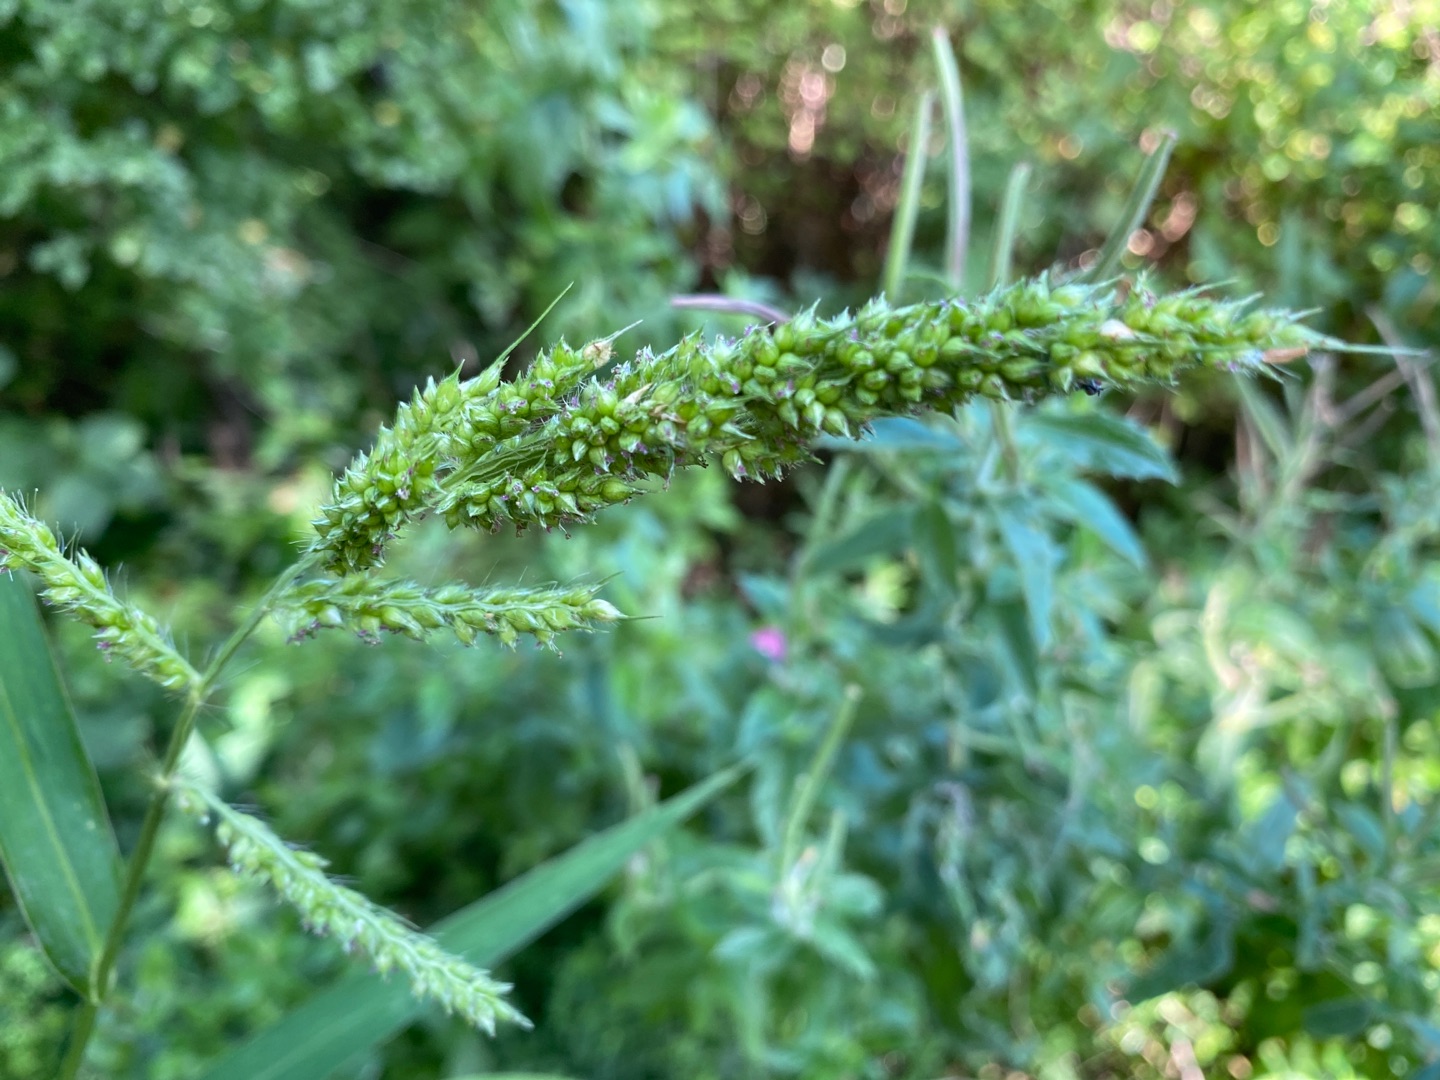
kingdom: Plantae
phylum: Tracheophyta
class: Liliopsida
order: Poales
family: Poaceae
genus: Echinochloa
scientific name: Echinochloa crus-galli
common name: Almindelig hanespore
